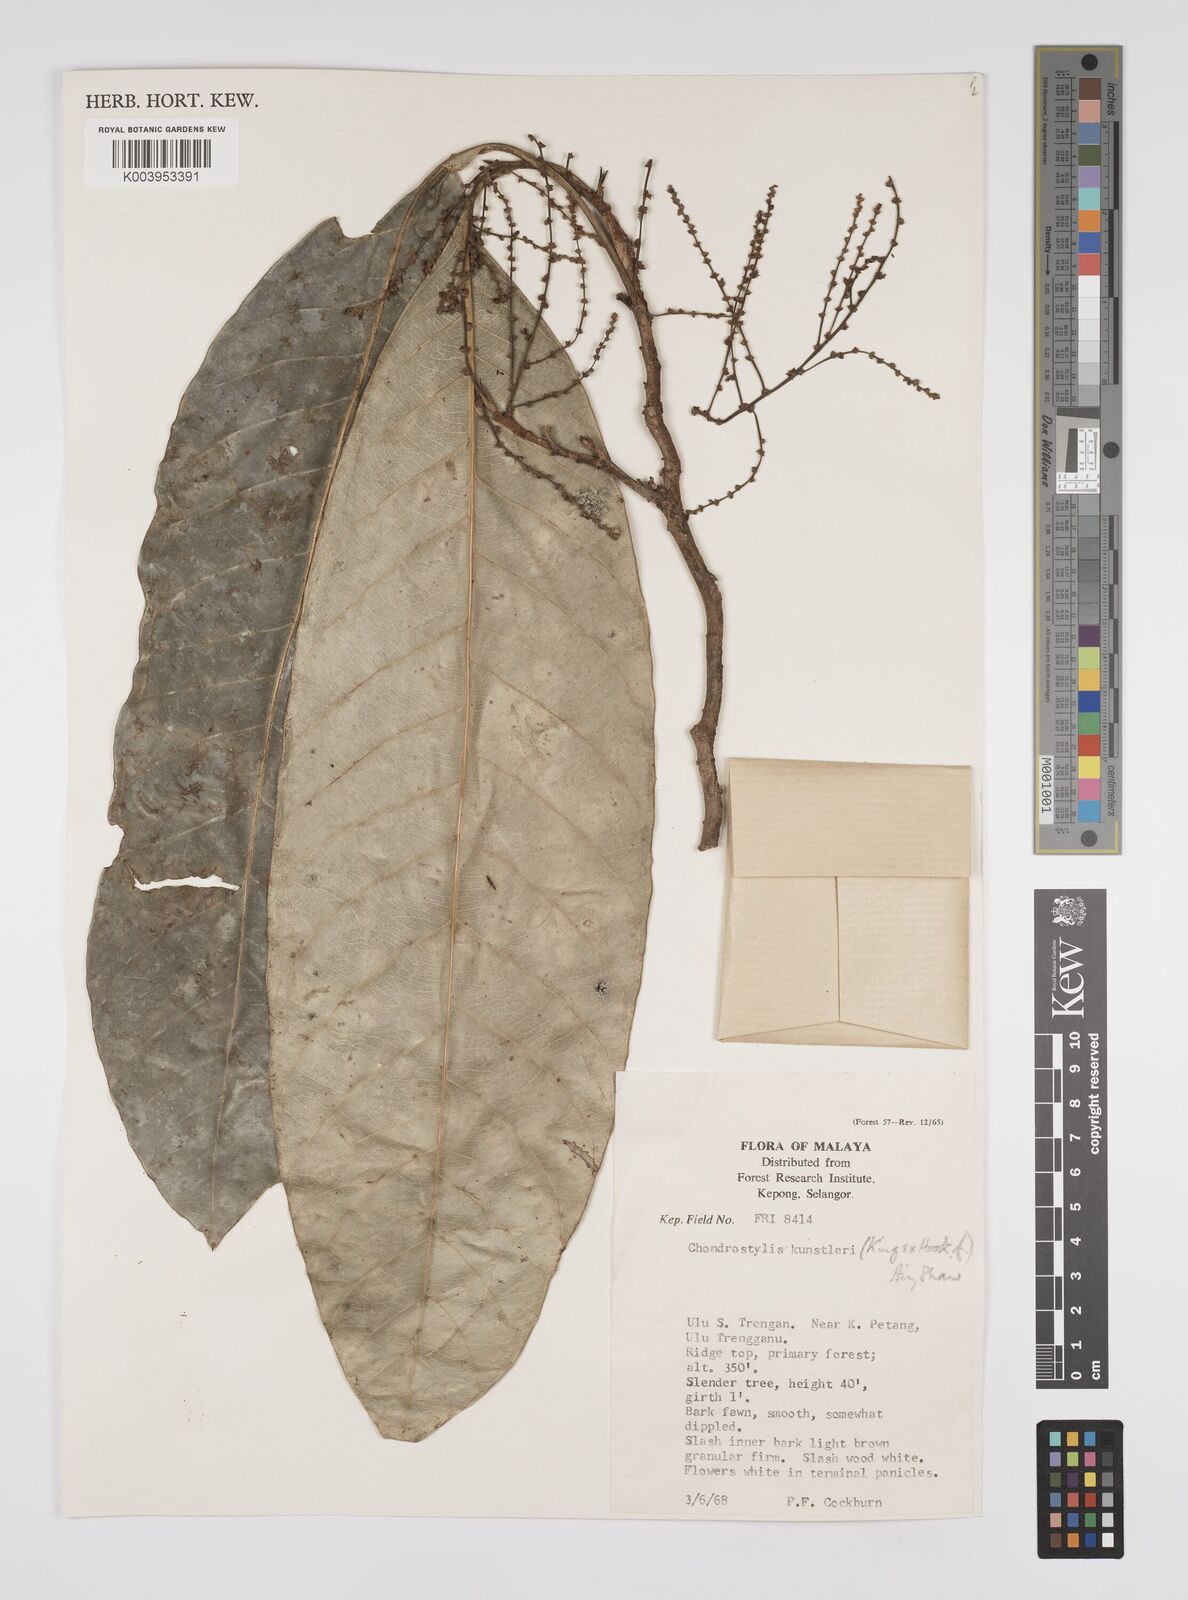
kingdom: Plantae
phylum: Tracheophyta
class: Magnoliopsida
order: Malpighiales
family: Euphorbiaceae
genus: Chondrostylis
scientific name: Chondrostylis kunstleri
